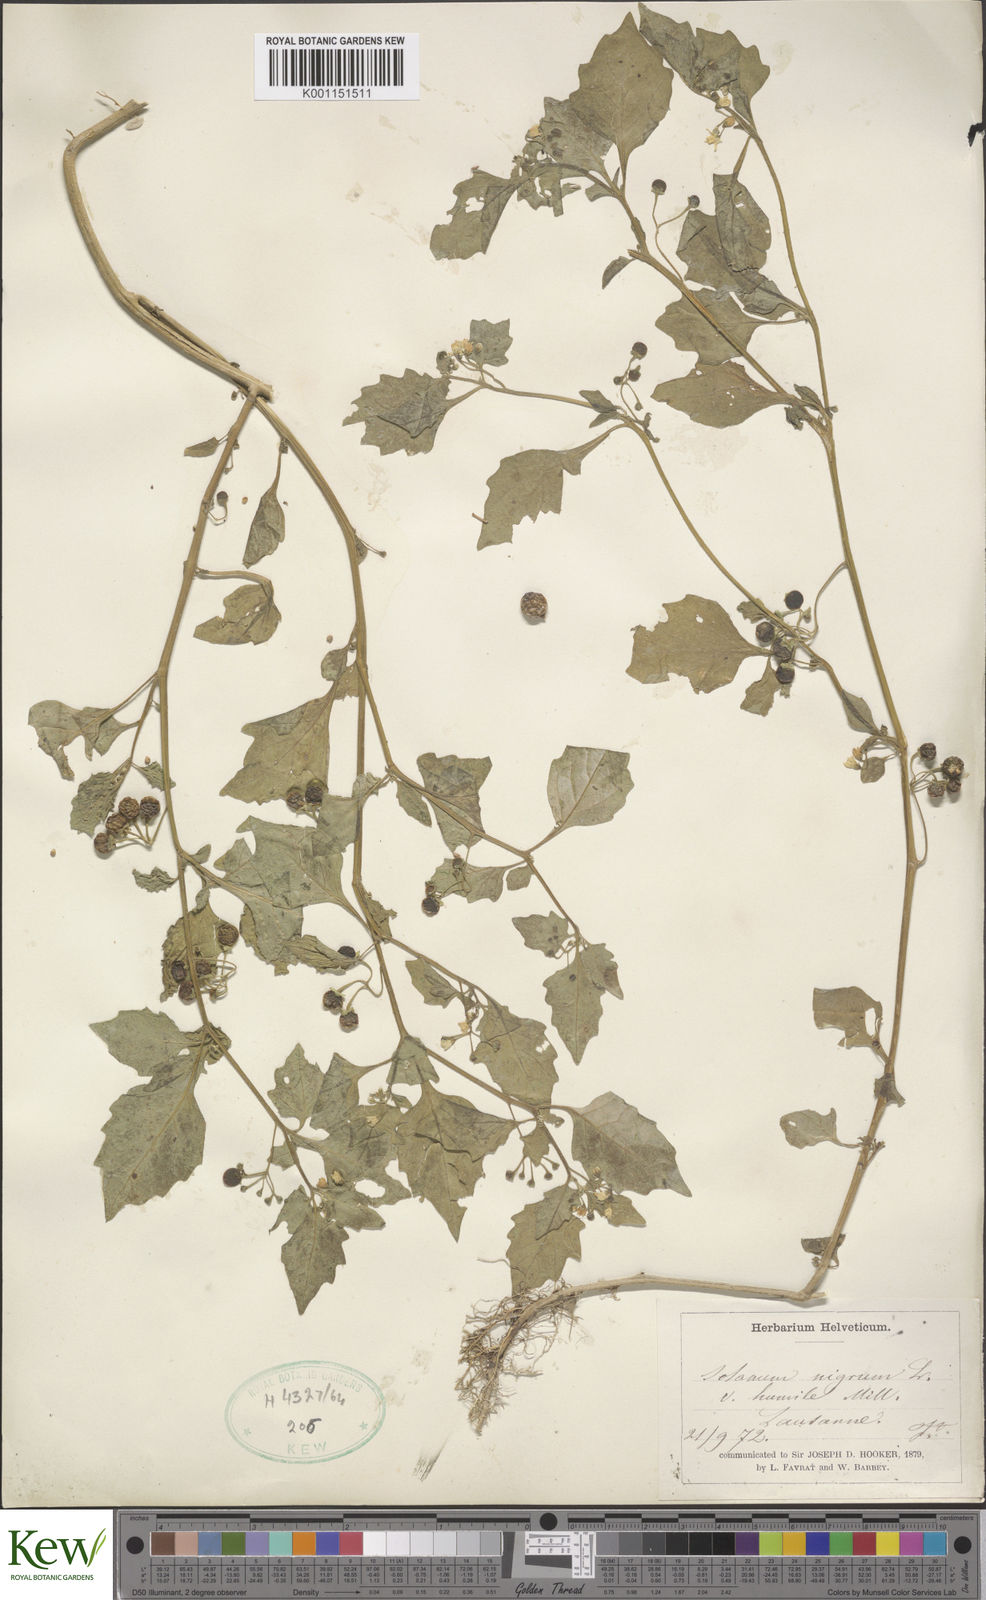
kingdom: Plantae
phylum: Tracheophyta
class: Magnoliopsida
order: Solanales
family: Solanaceae
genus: Solanum
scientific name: Solanum villosum
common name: Red nightshade
